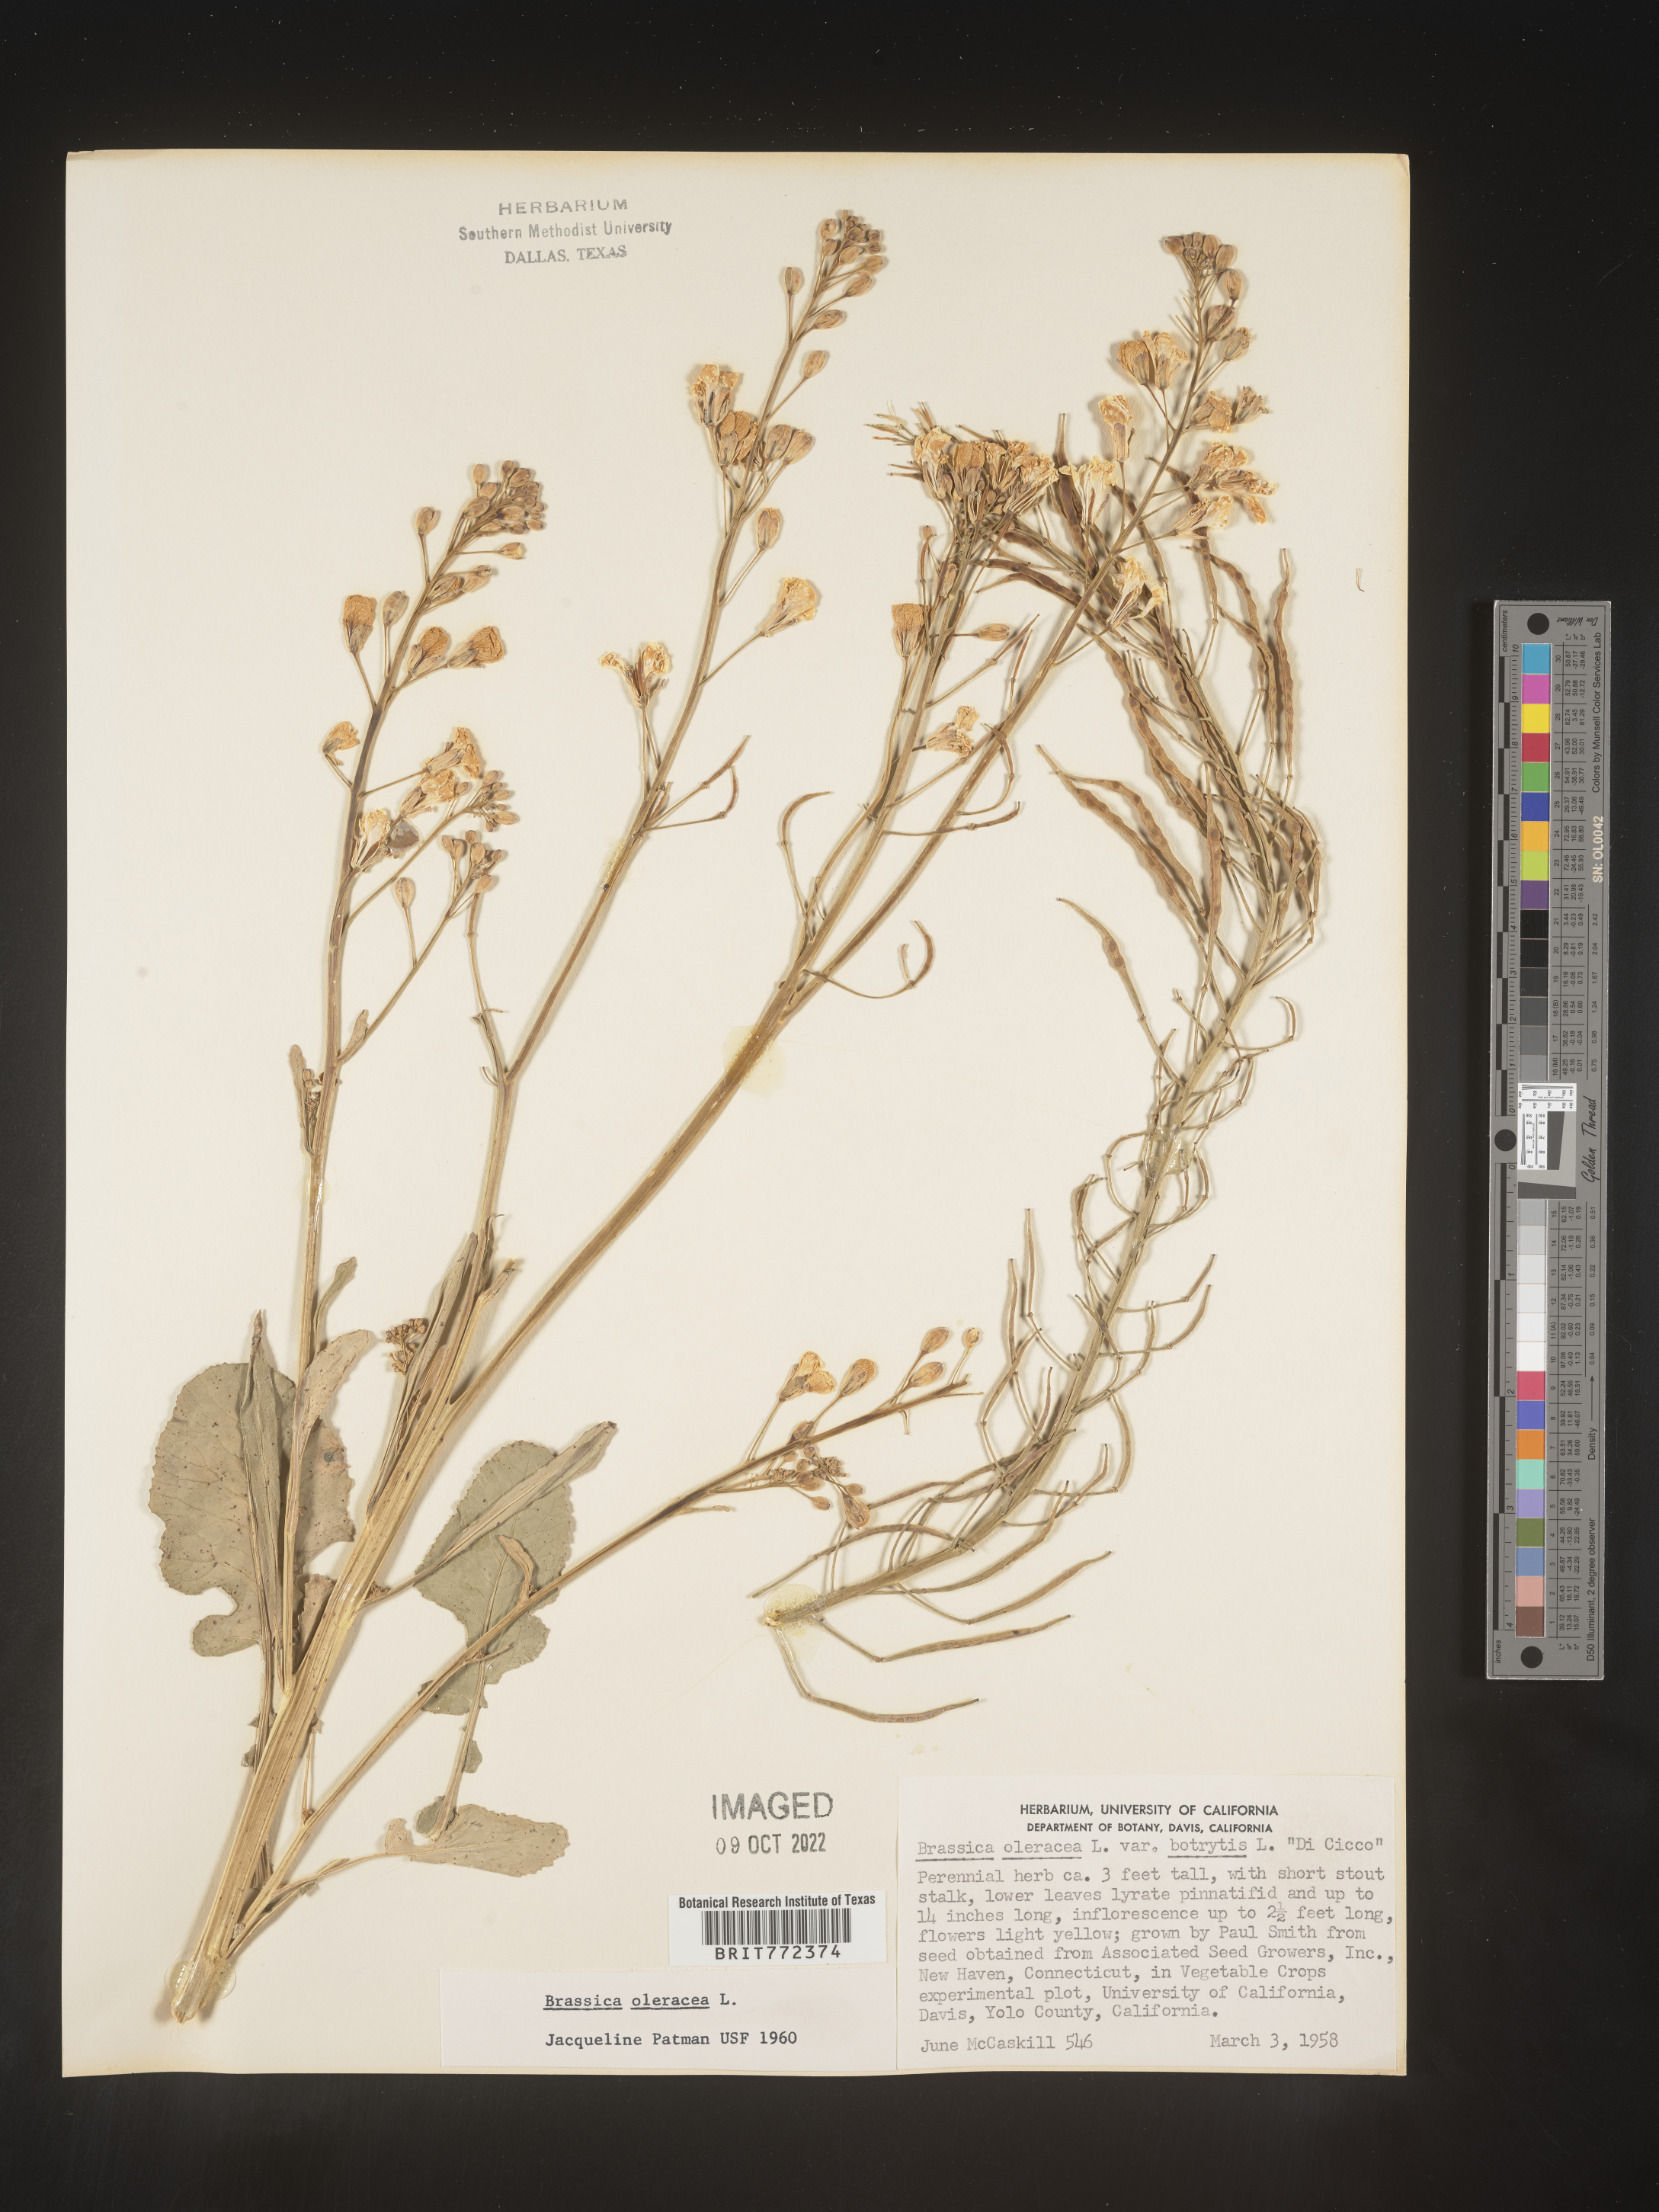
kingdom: Plantae
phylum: Tracheophyta
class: Magnoliopsida
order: Brassicales
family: Brassicaceae
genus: Brassica
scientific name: Brassica
